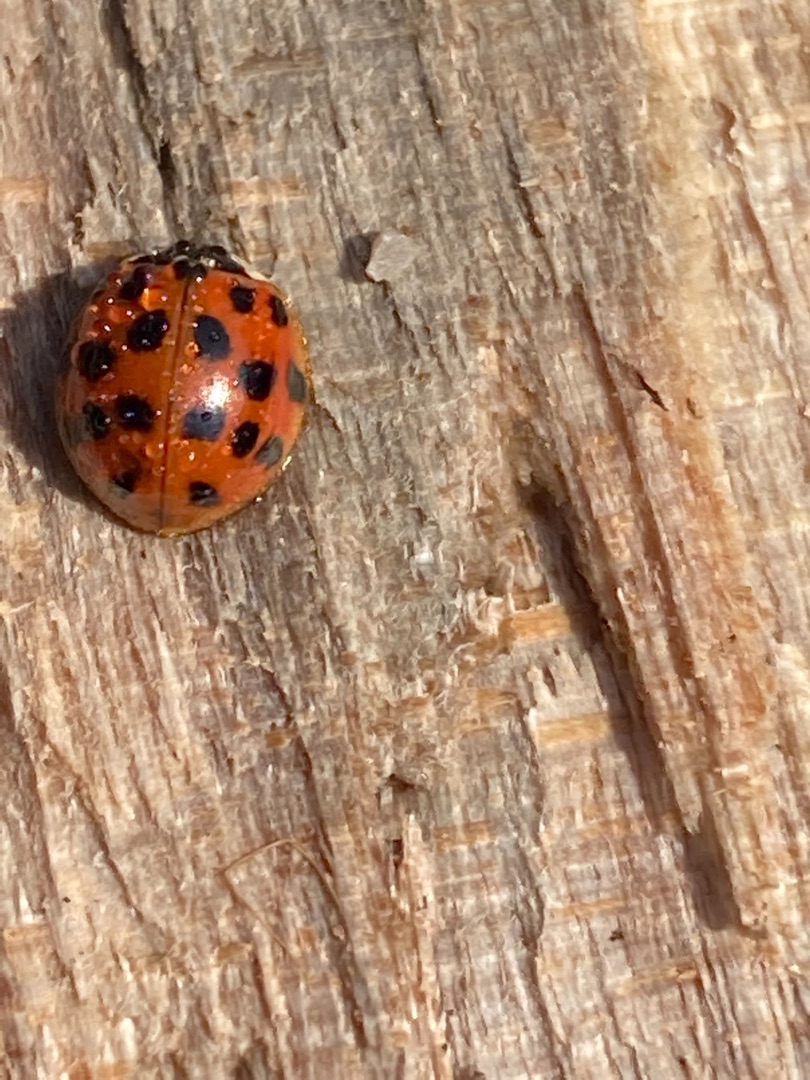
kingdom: Animalia
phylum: Arthropoda
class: Insecta
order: Coleoptera
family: Coccinellidae
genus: Harmonia
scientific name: Harmonia axyridis
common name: Harlekinmariehøne
